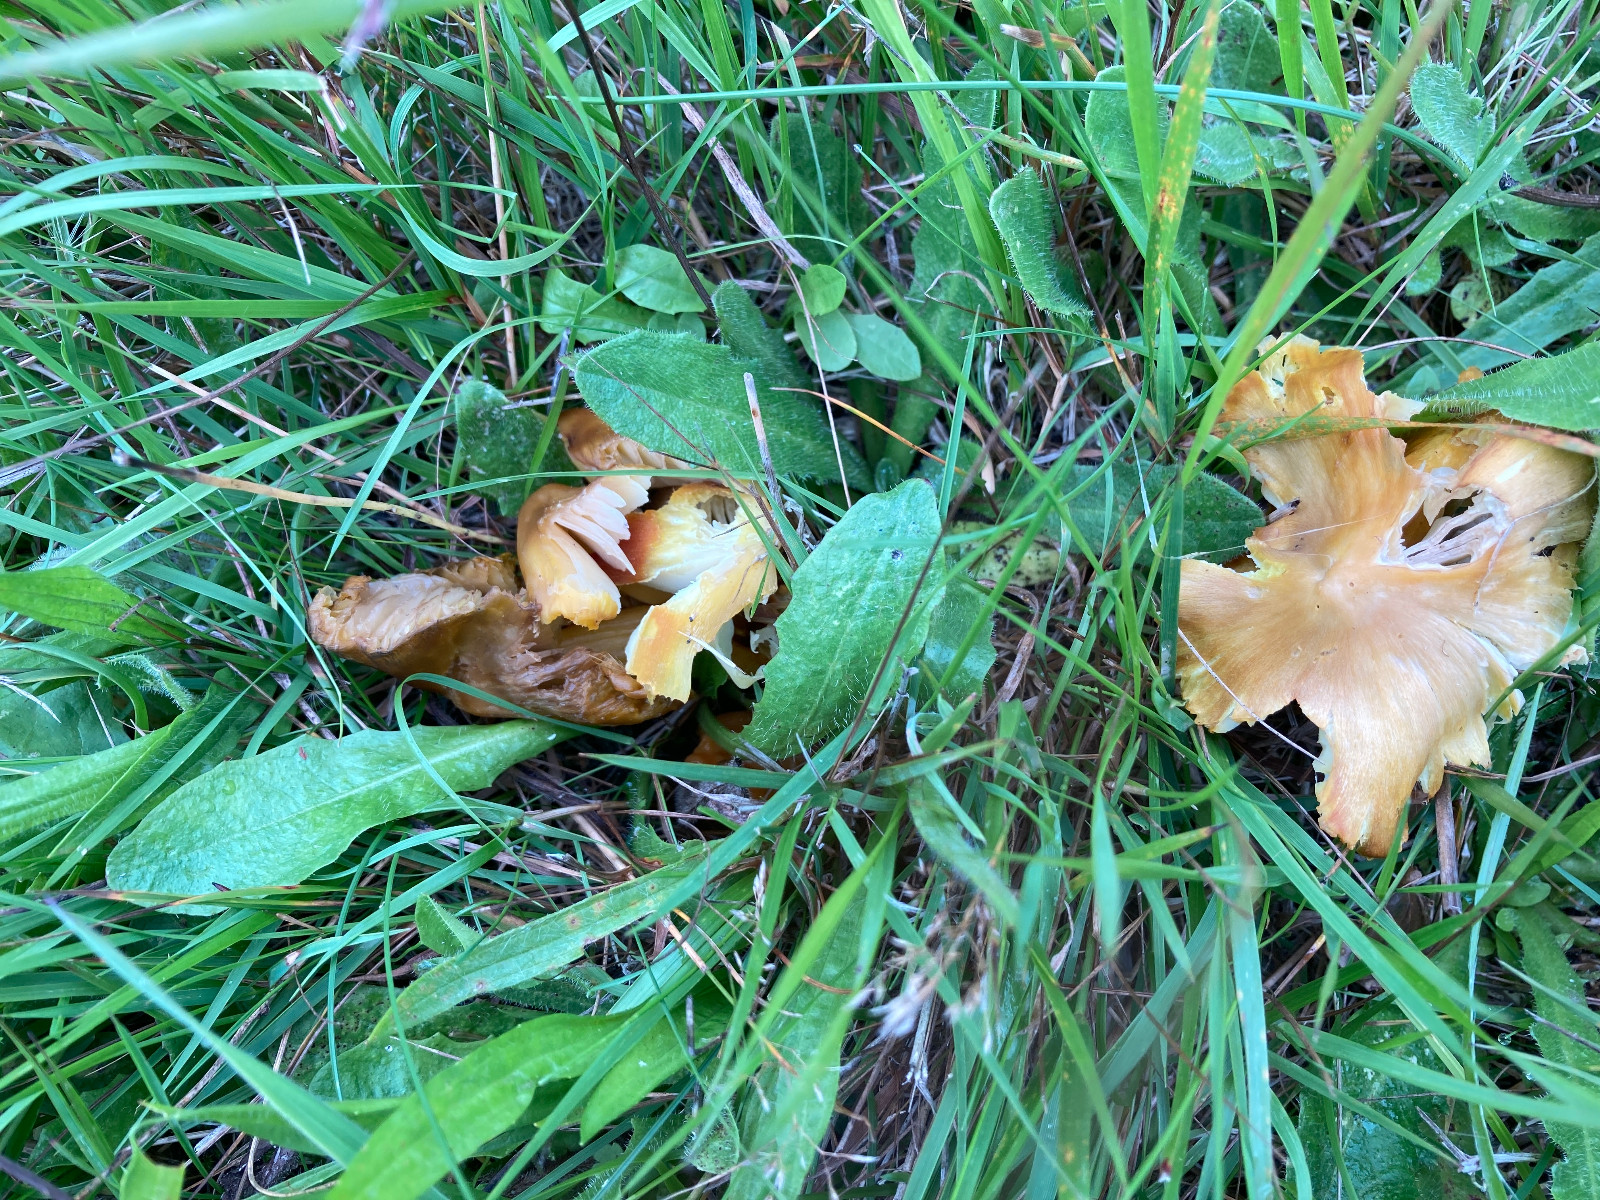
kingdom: Fungi
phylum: Basidiomycota
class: Agaricomycetes
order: Agaricales
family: Hygrophoraceae
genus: Hygrocybe
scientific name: Hygrocybe citrinovirens
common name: grøngul vokshat
